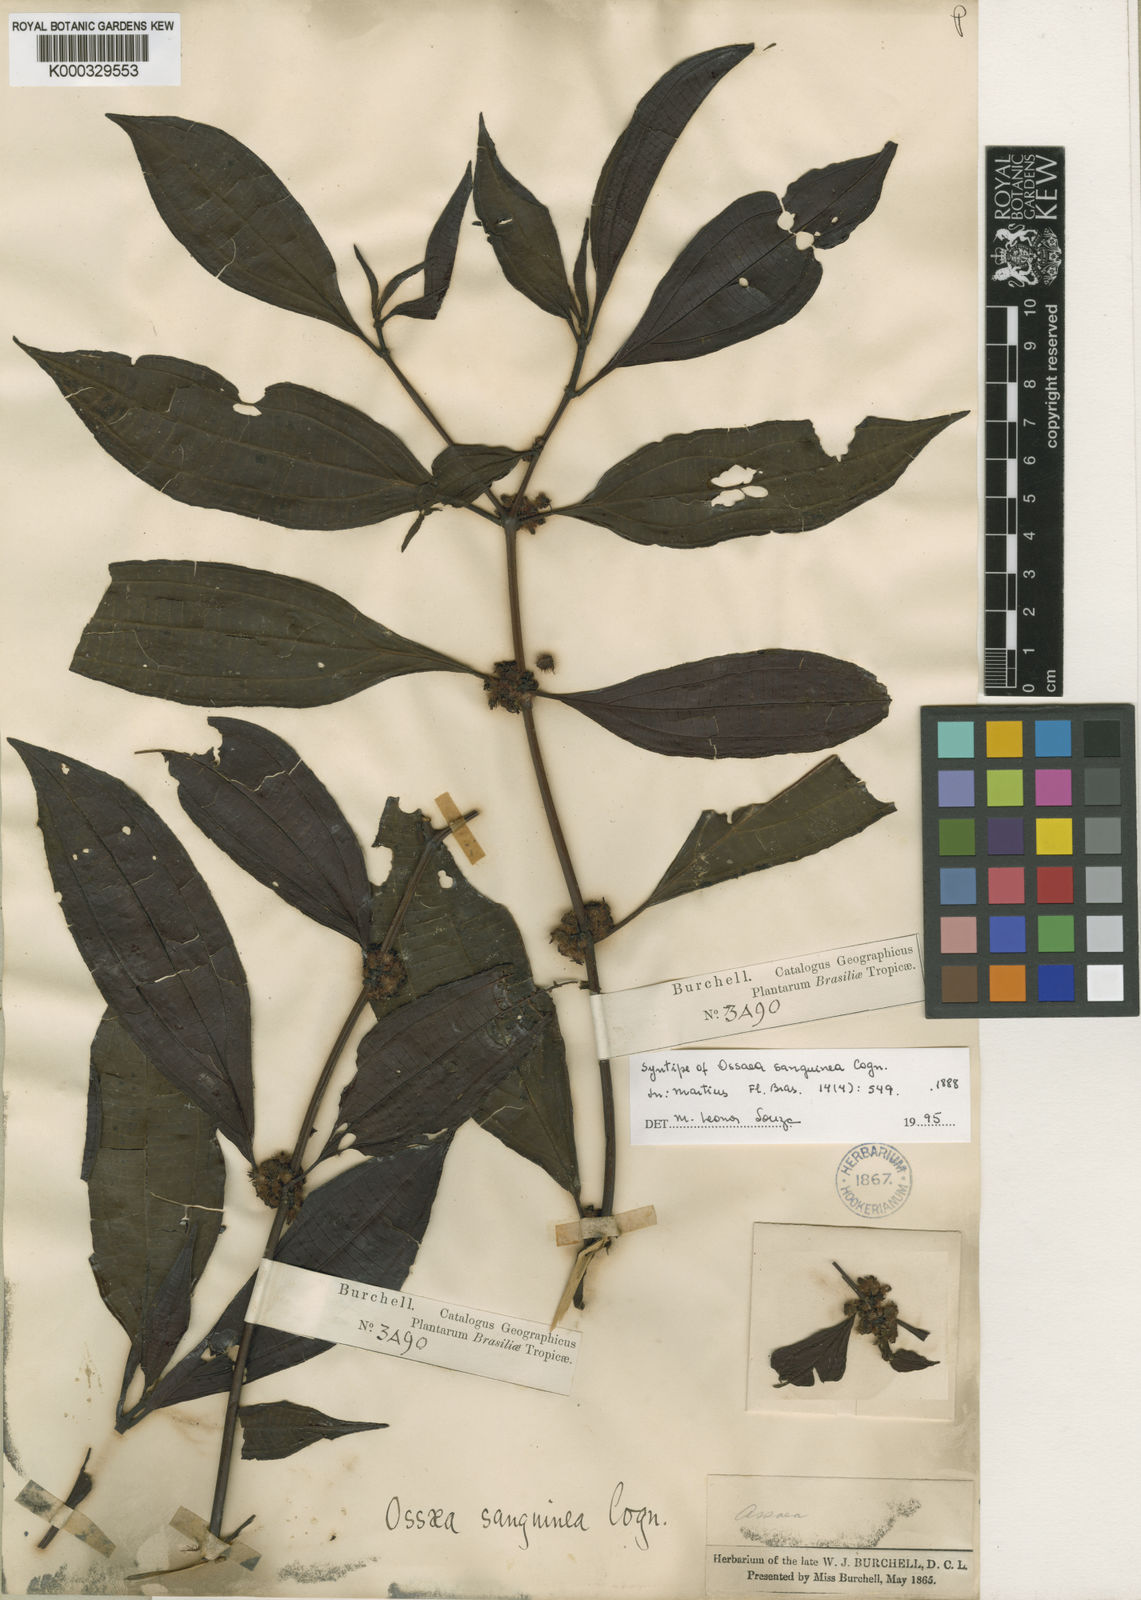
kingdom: Plantae
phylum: Tracheophyta
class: Magnoliopsida
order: Myrtales
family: Melastomataceae
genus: Miconia
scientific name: Miconia secunsanguinea
